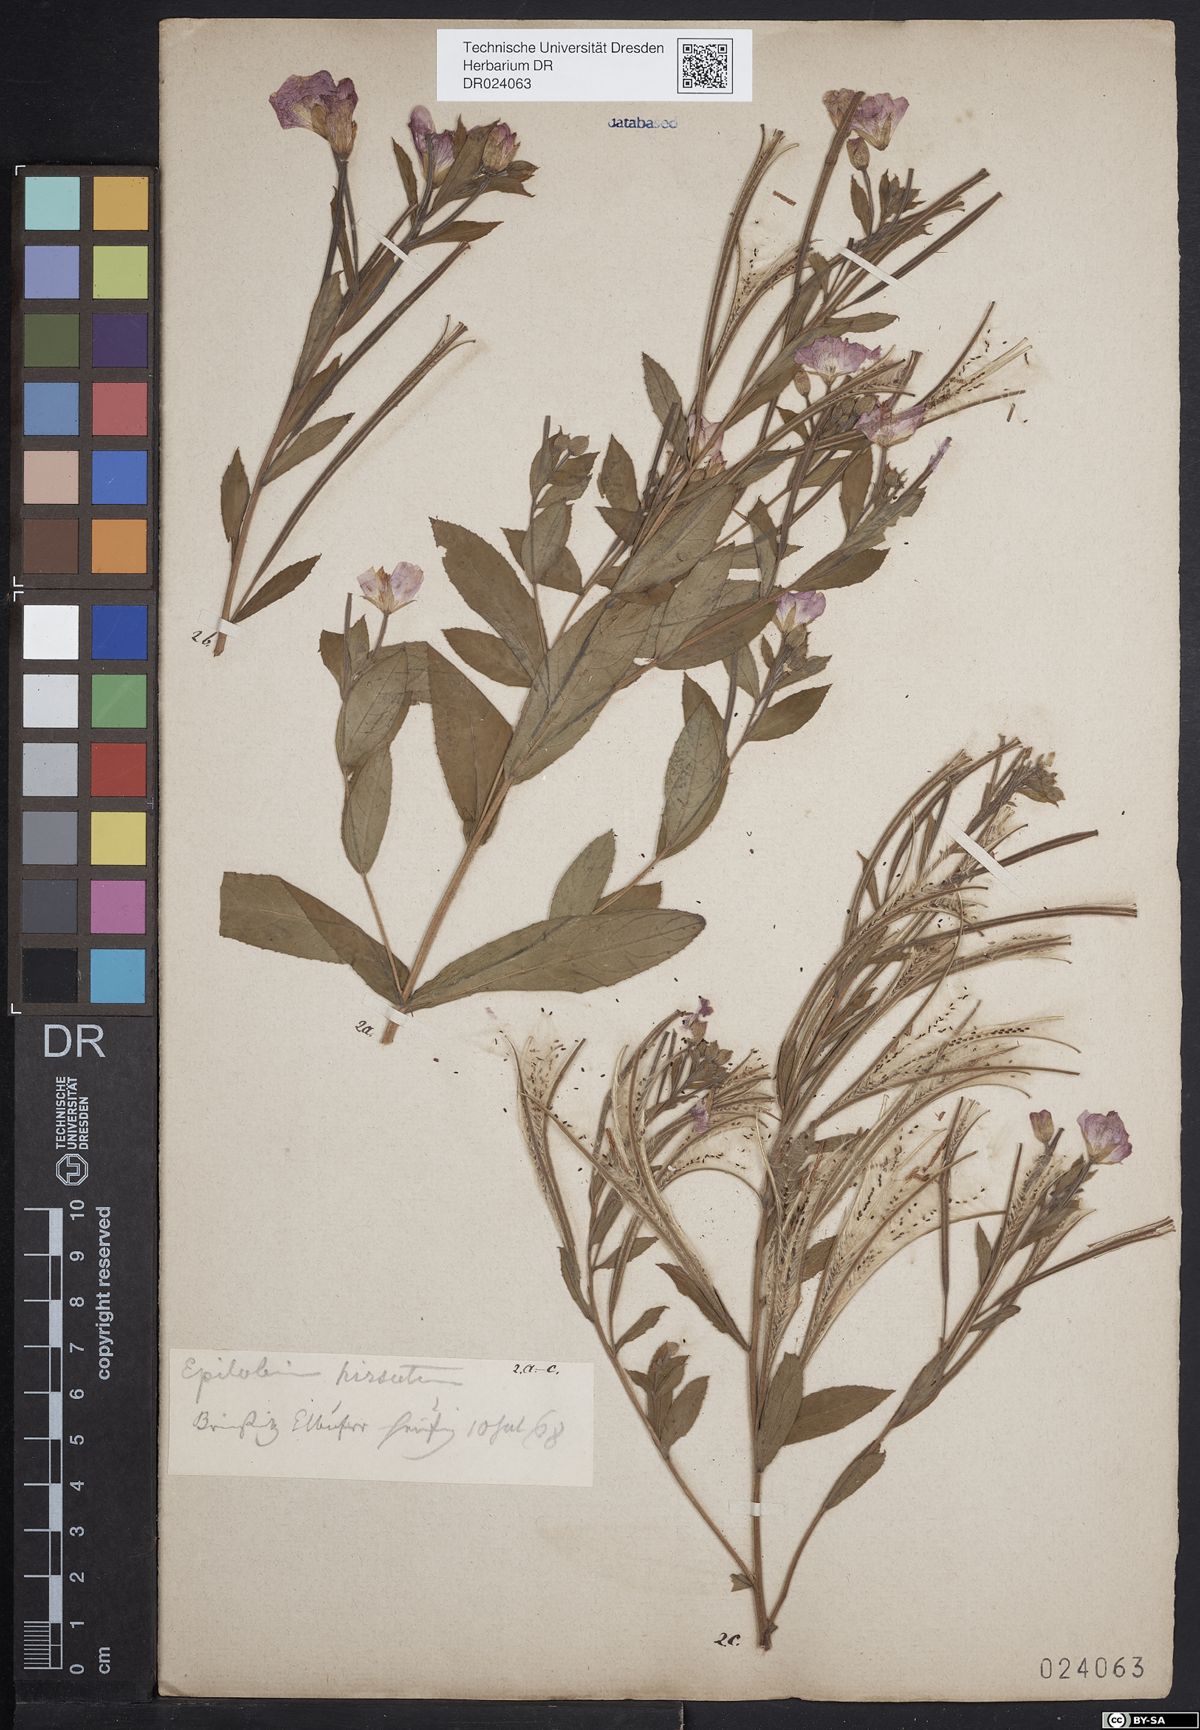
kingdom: Plantae
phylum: Tracheophyta
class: Magnoliopsida
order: Myrtales
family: Onagraceae
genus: Epilobium
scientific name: Epilobium hirsutum
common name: Great willowherb
